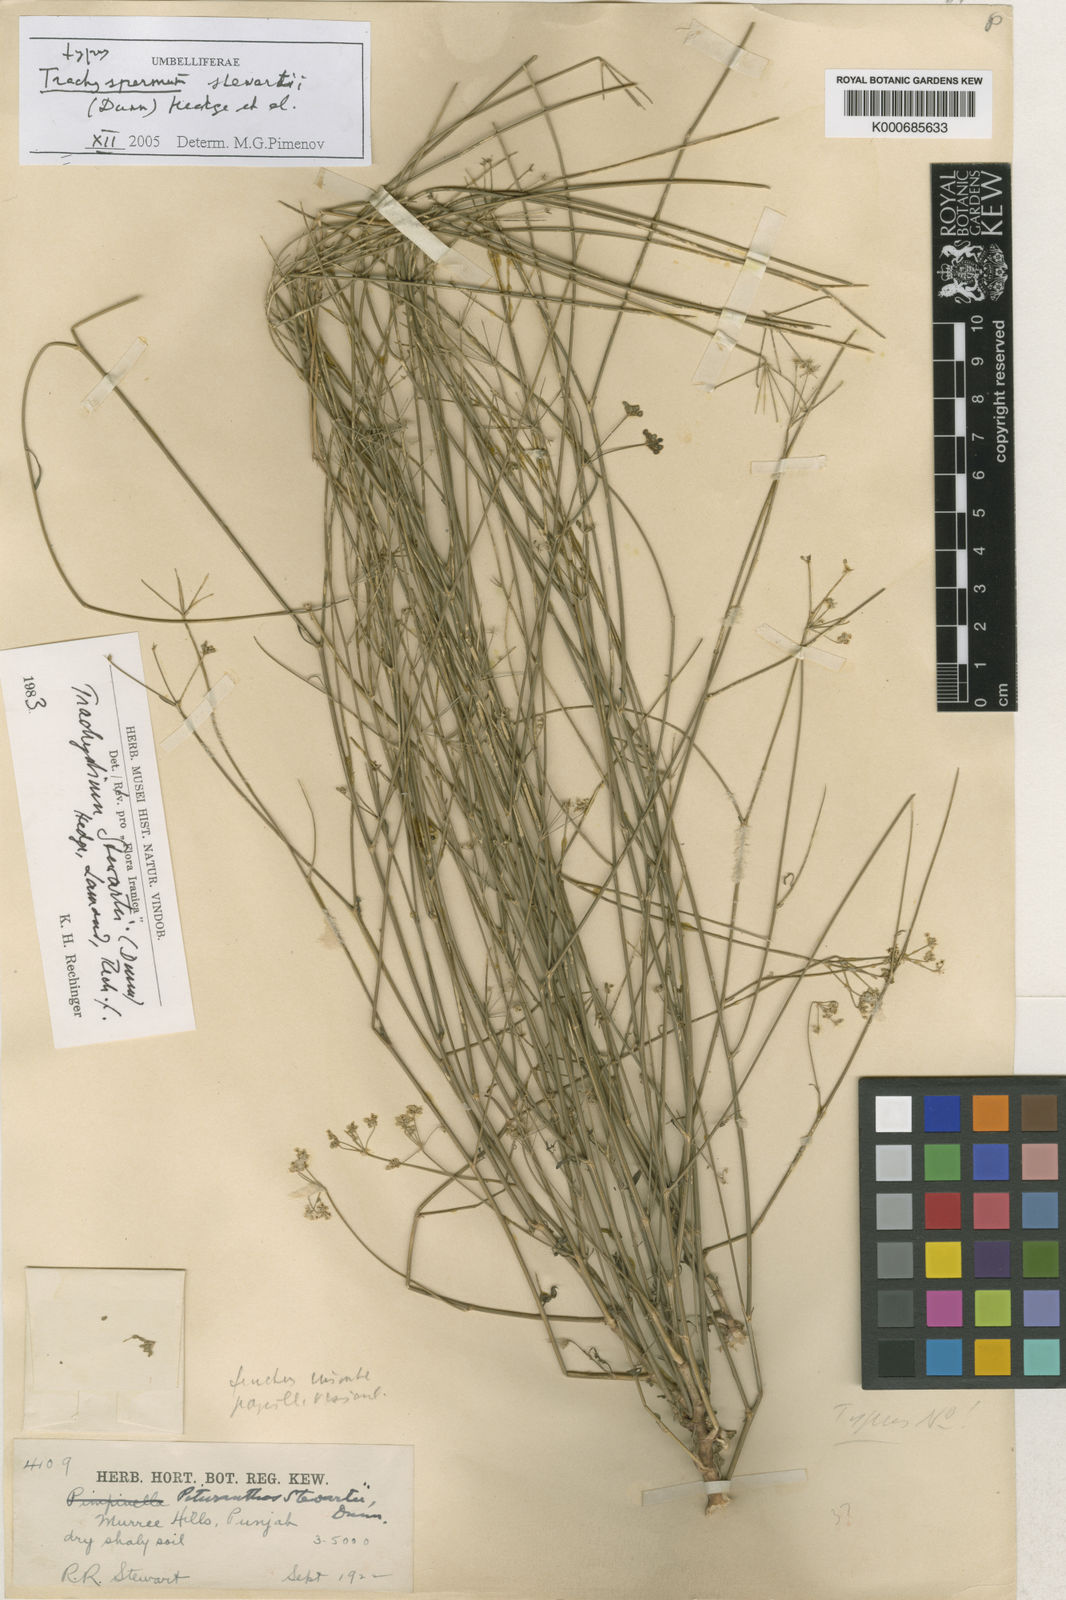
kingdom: Plantae
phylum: Tracheophyta
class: Magnoliopsida
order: Apiales
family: Apiaceae
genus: Trachyspermum
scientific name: Trachyspermum
